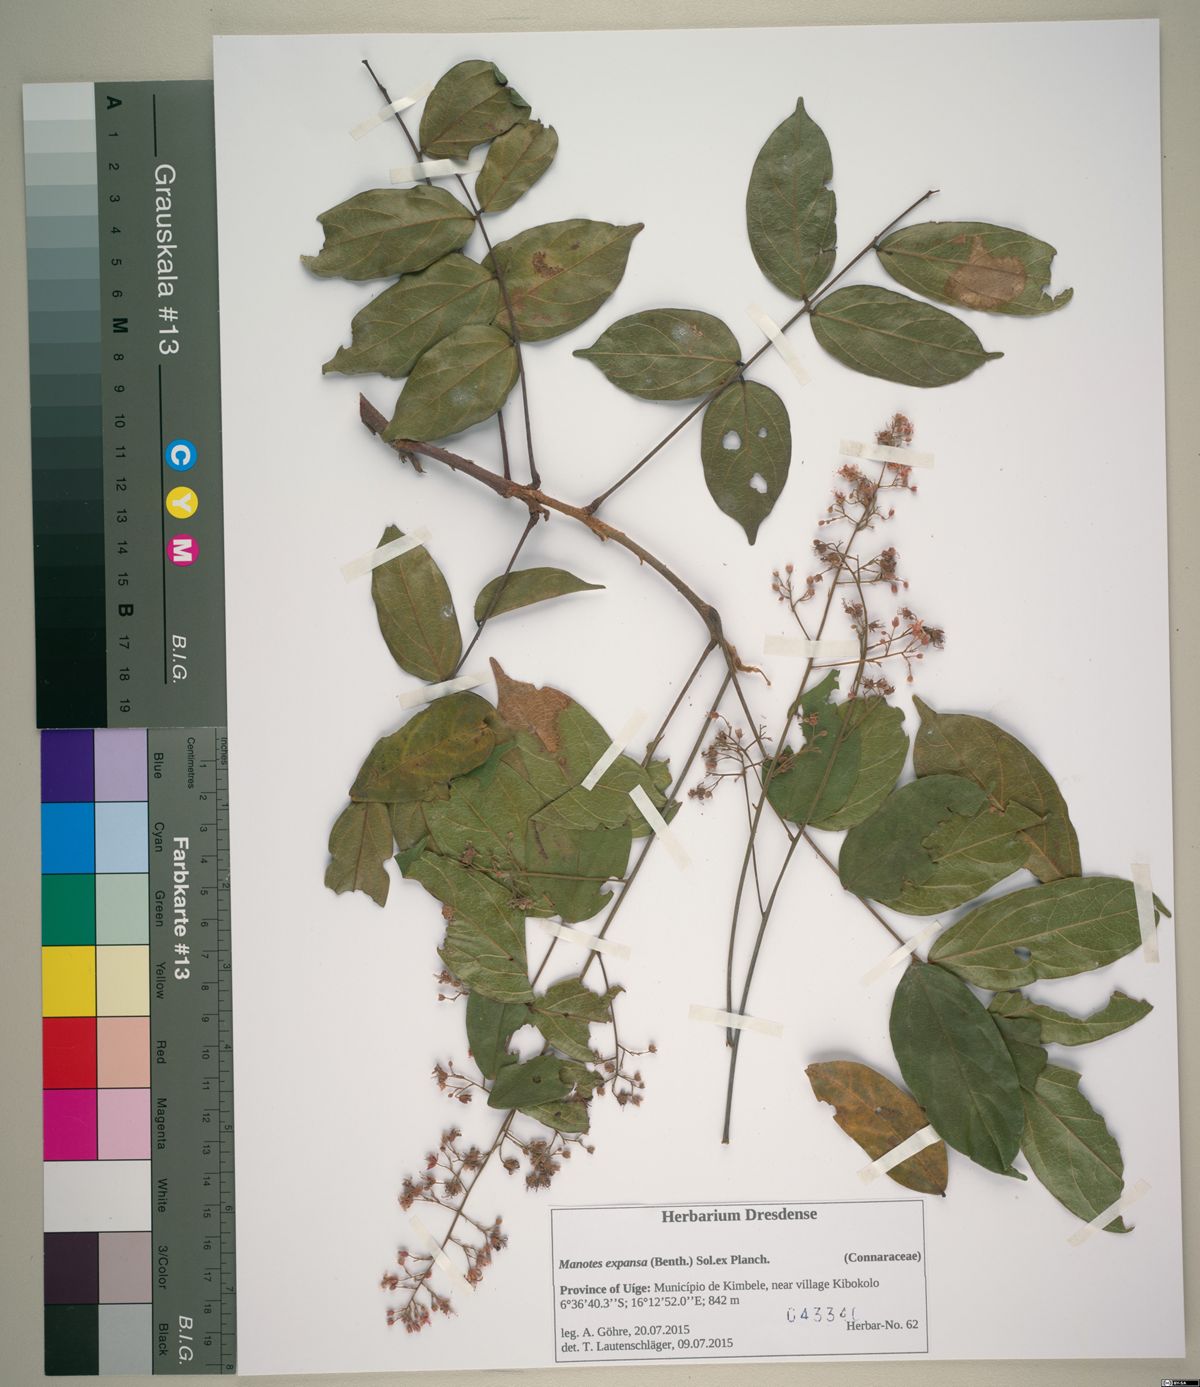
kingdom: Plantae
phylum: Tracheophyta
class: Magnoliopsida
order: Oxalidales
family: Connaraceae
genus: Manotes
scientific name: Manotes expansa
